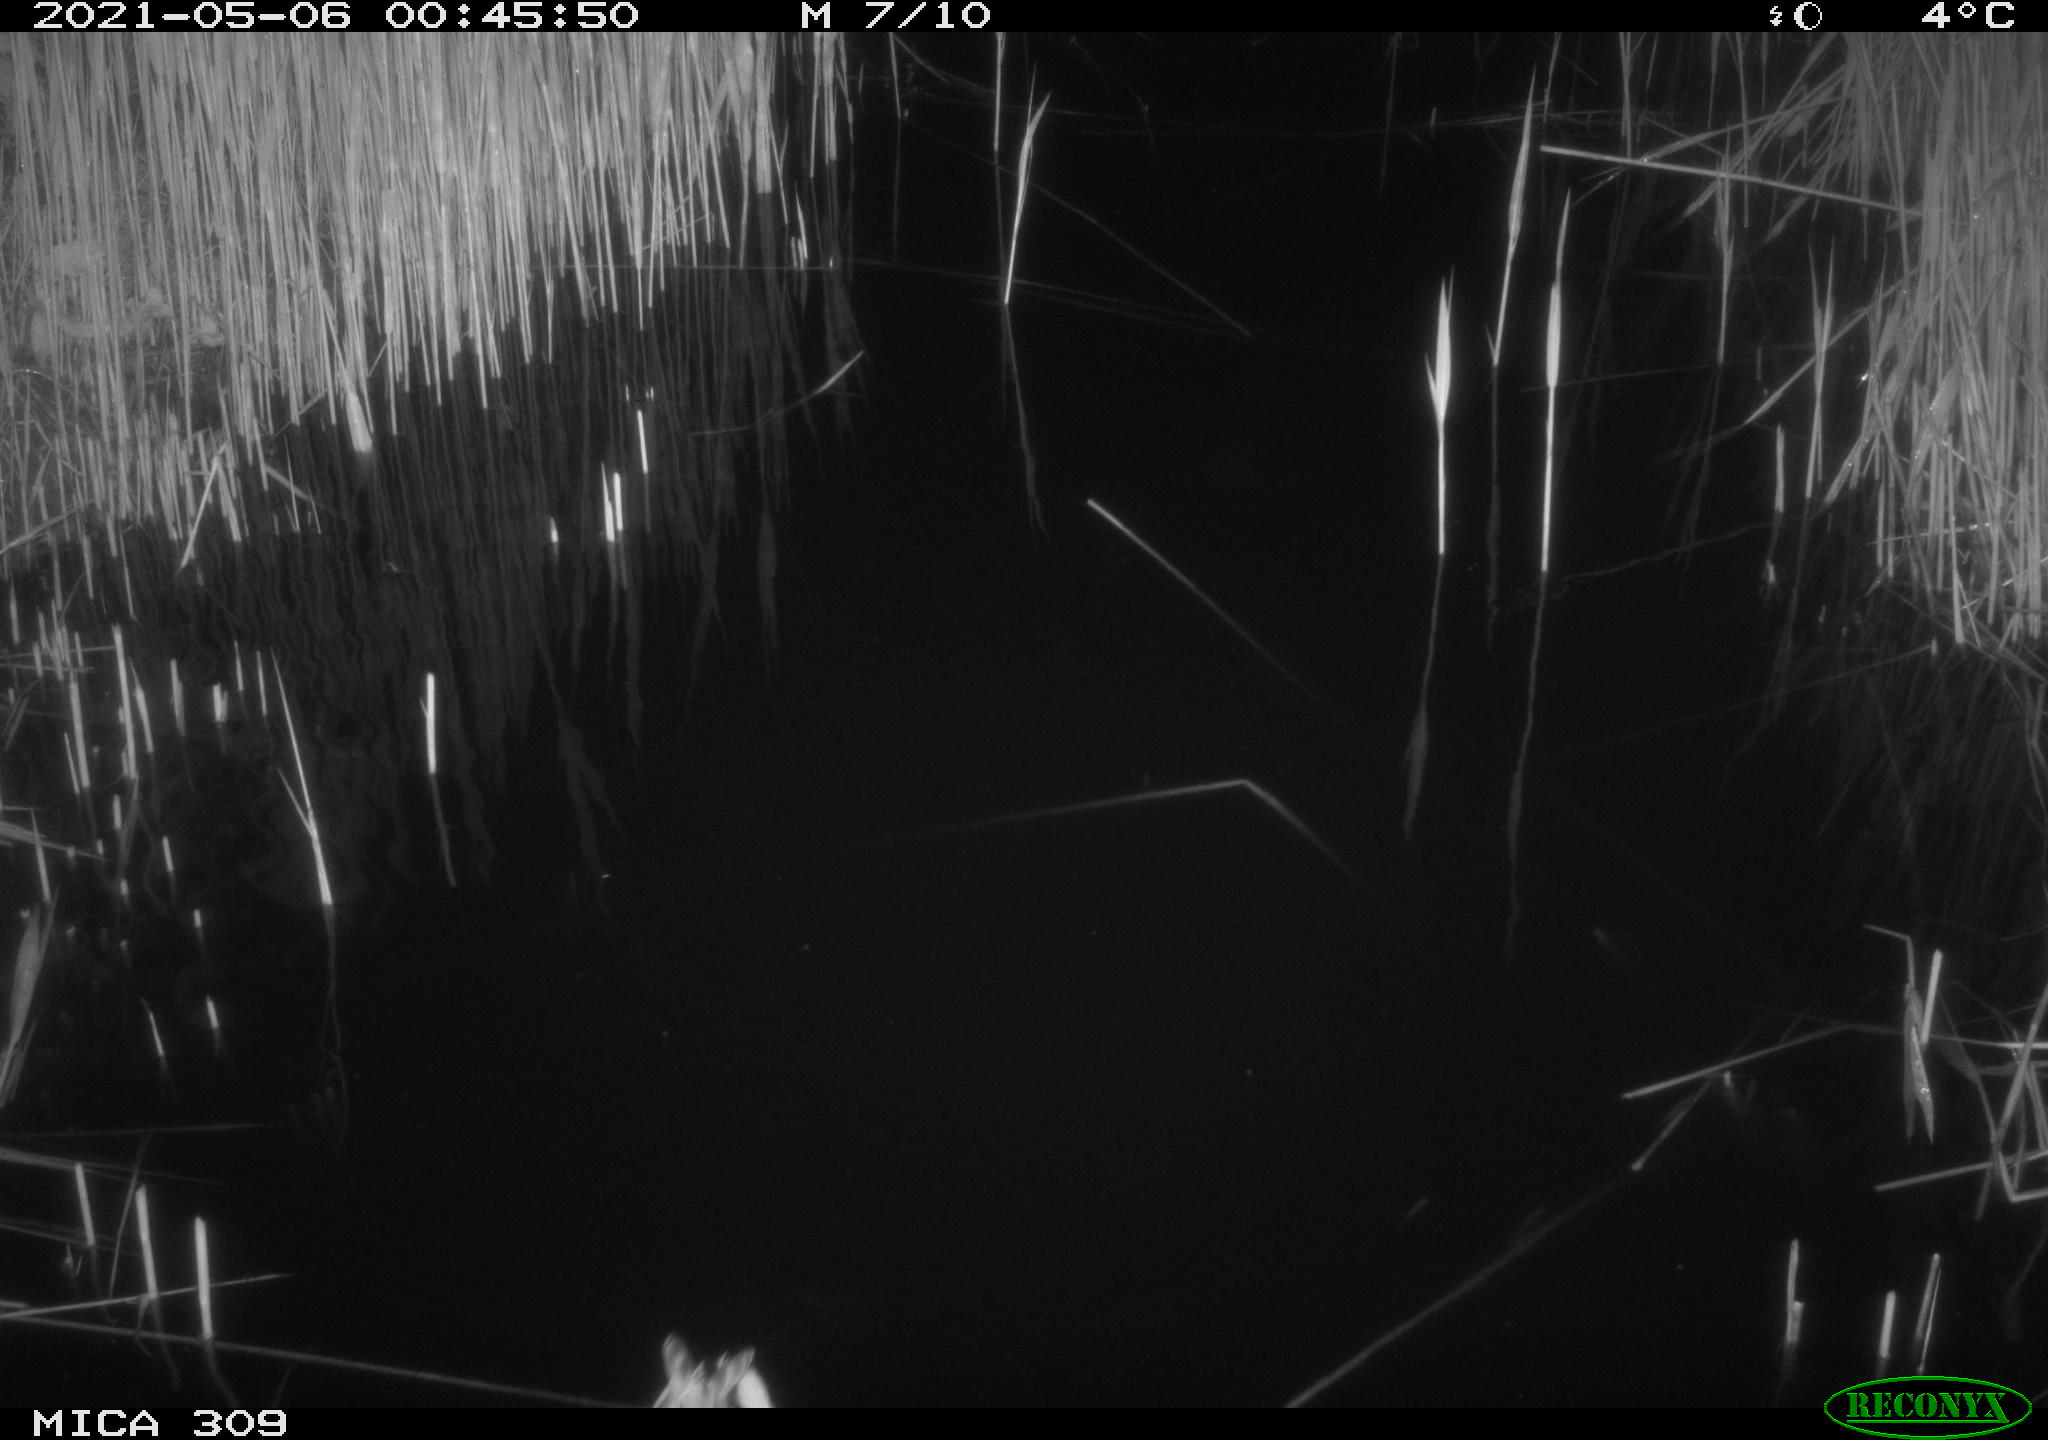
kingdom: Animalia
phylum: Chordata
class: Aves
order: Anseriformes
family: Anatidae
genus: Anas
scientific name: Anas platyrhynchos
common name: Mallard
